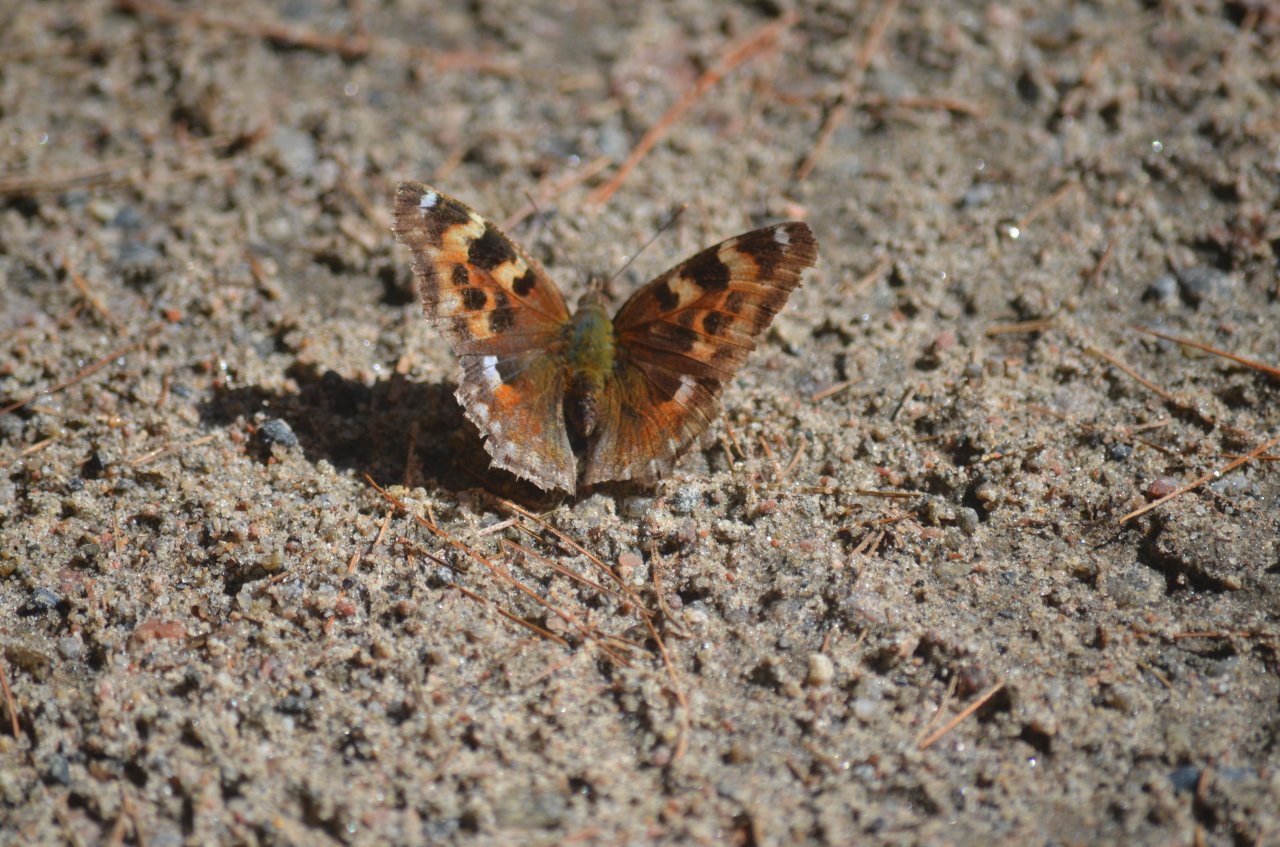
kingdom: Animalia
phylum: Arthropoda
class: Insecta
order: Lepidoptera
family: Nymphalidae
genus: Polygonia
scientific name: Polygonia vaualbum
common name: Compton Tortoiseshell
